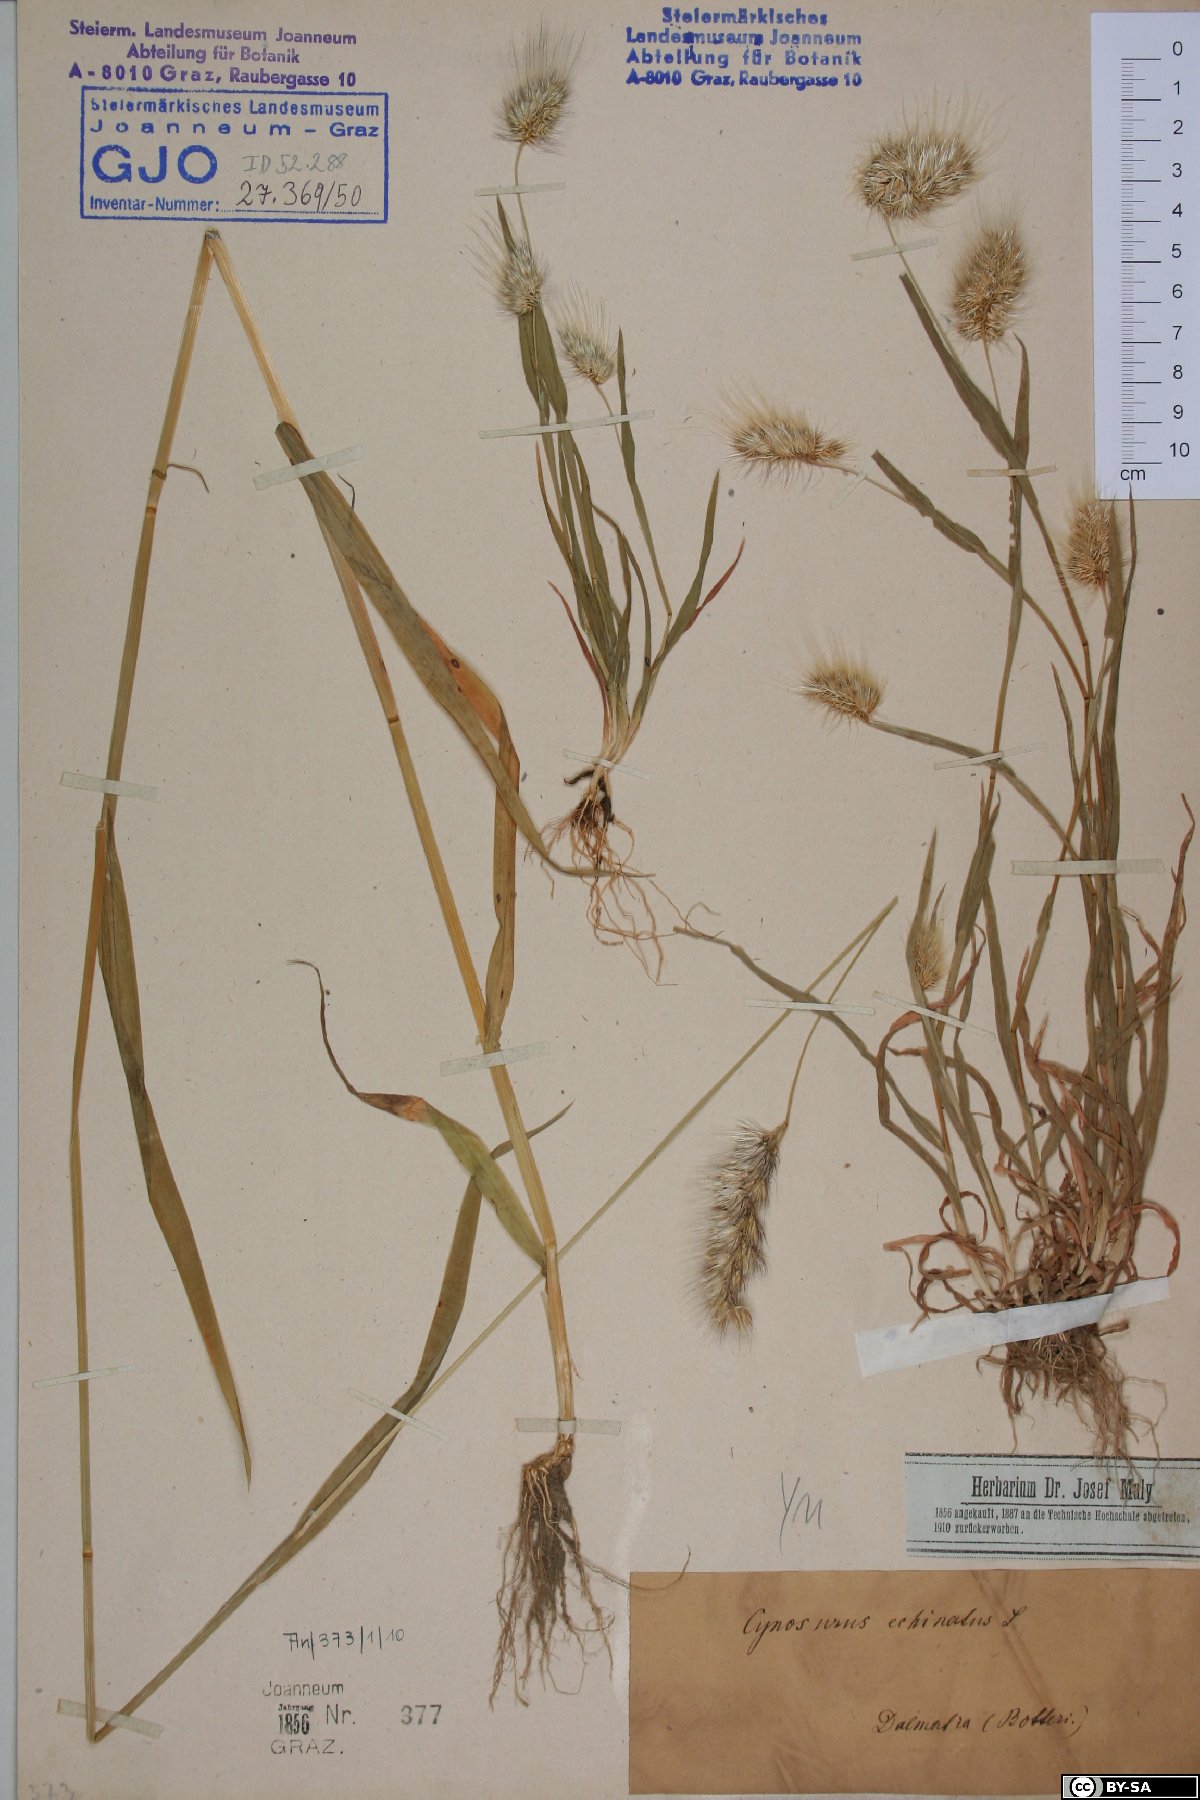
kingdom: Plantae
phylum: Tracheophyta
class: Liliopsida
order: Poales
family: Poaceae
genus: Cynosurus
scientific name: Cynosurus echinatus
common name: Rough dog's-tail
